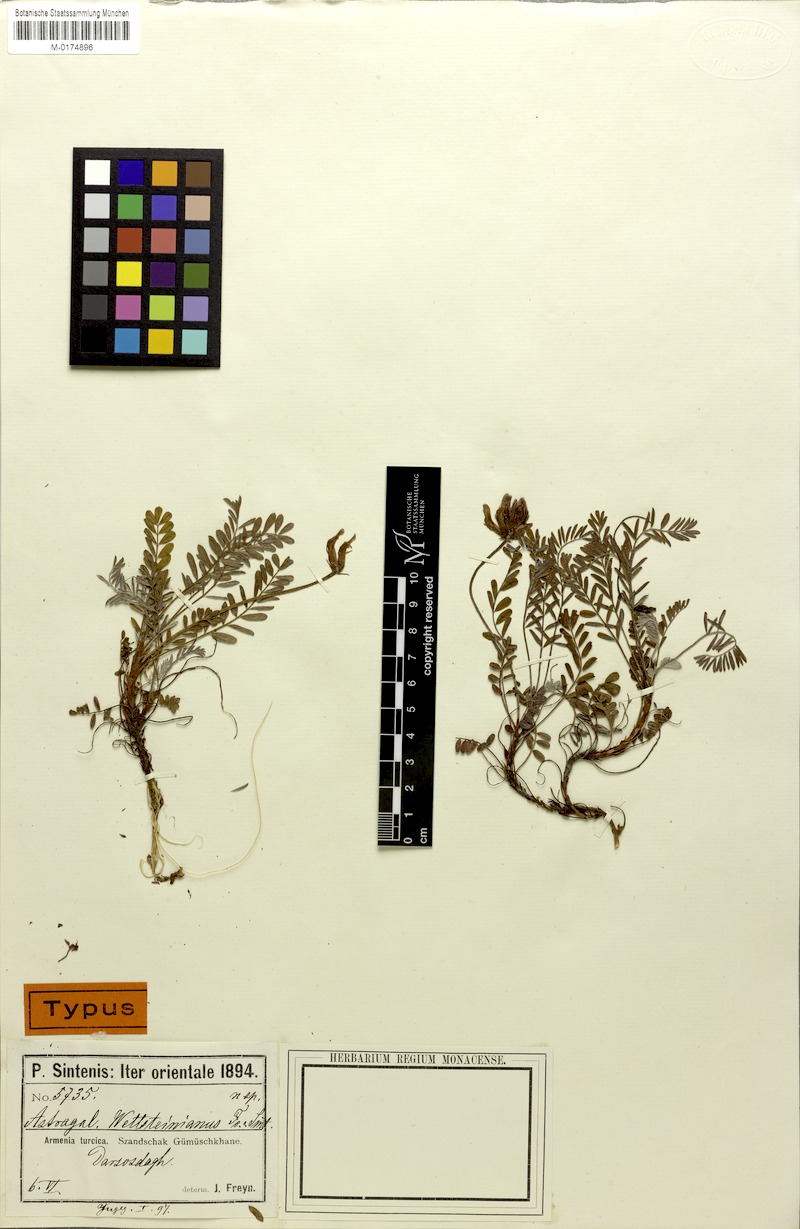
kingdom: Plantae
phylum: Tracheophyta
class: Magnoliopsida
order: Fabales
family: Fabaceae
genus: Astragalus
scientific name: Astragalus amoenus
